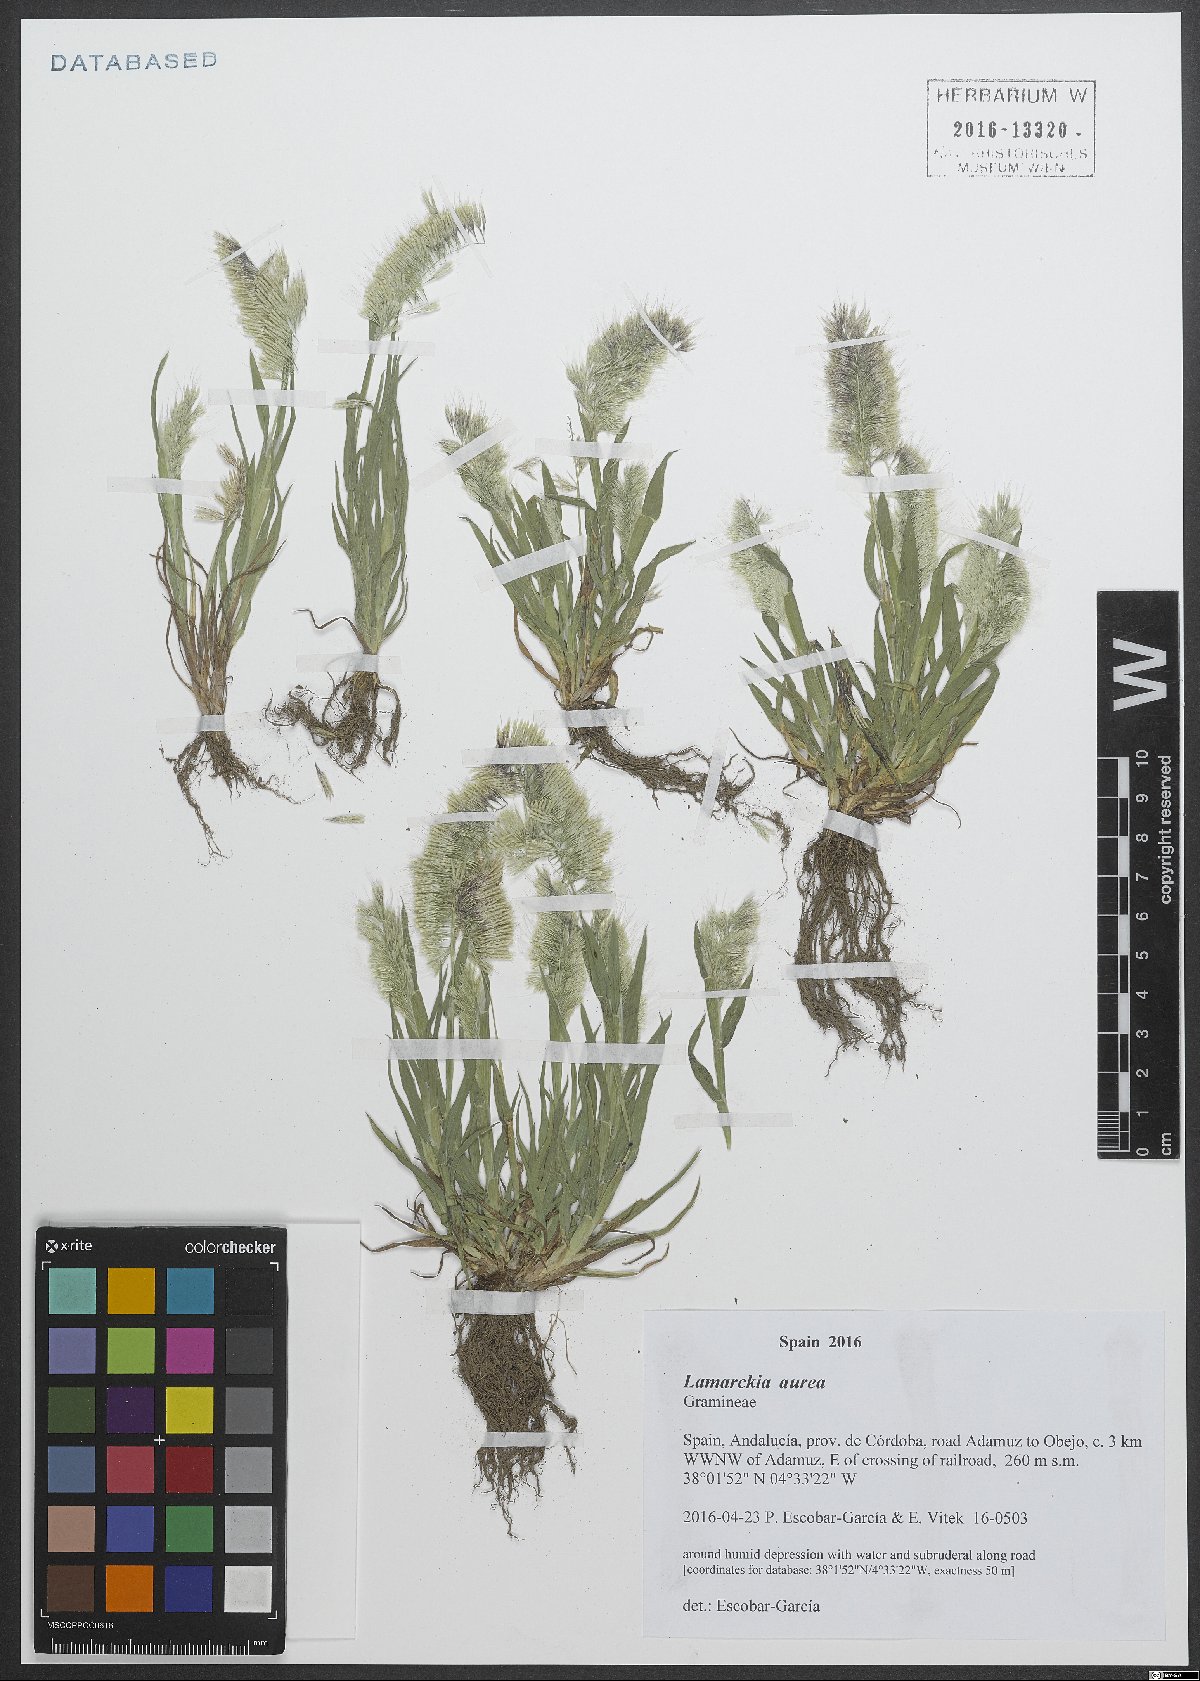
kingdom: Plantae
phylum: Tracheophyta
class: Liliopsida
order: Poales
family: Poaceae
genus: Lamarckia
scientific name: Lamarckia aurea
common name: Golden dog's-tail
